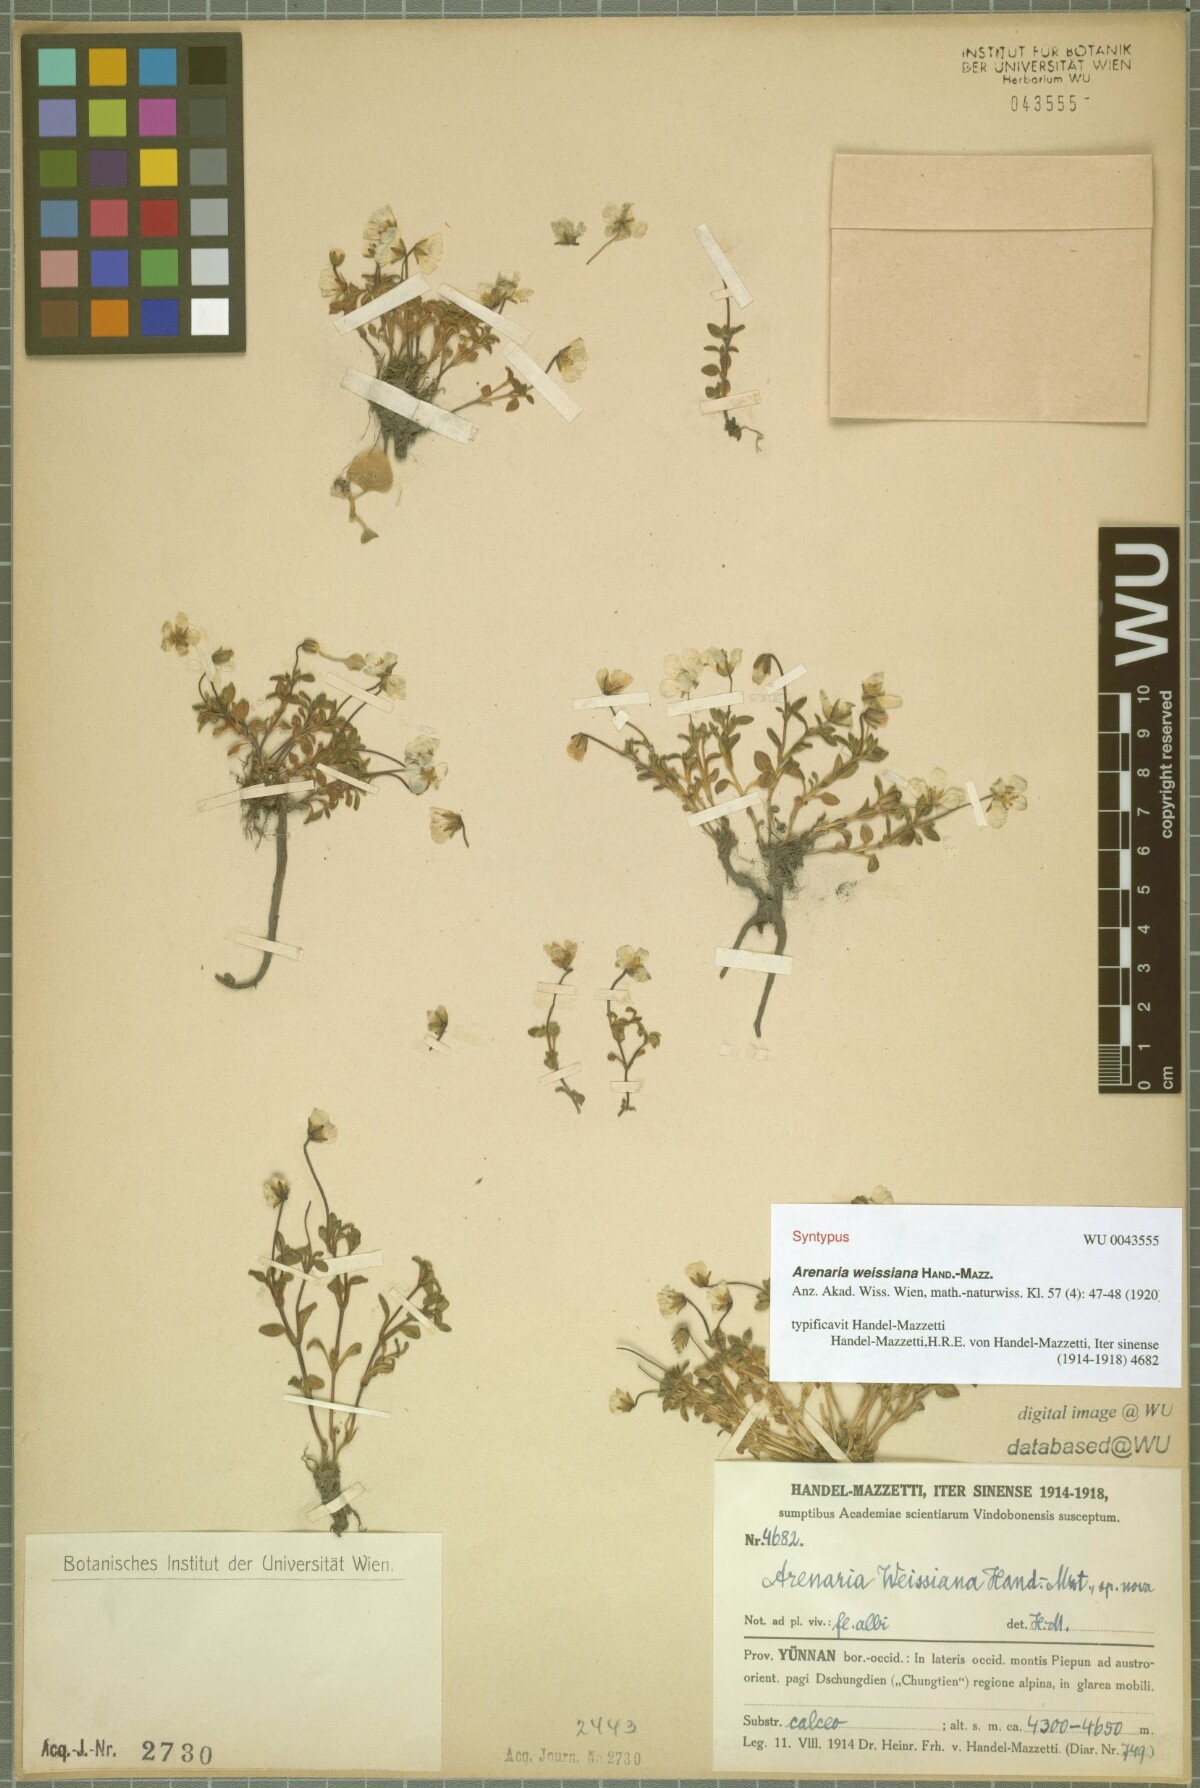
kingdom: Plantae
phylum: Tracheophyta
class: Magnoliopsida
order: Caryophyllales
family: Caryophyllaceae
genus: Odontostemma
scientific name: Odontostemma weissianum
